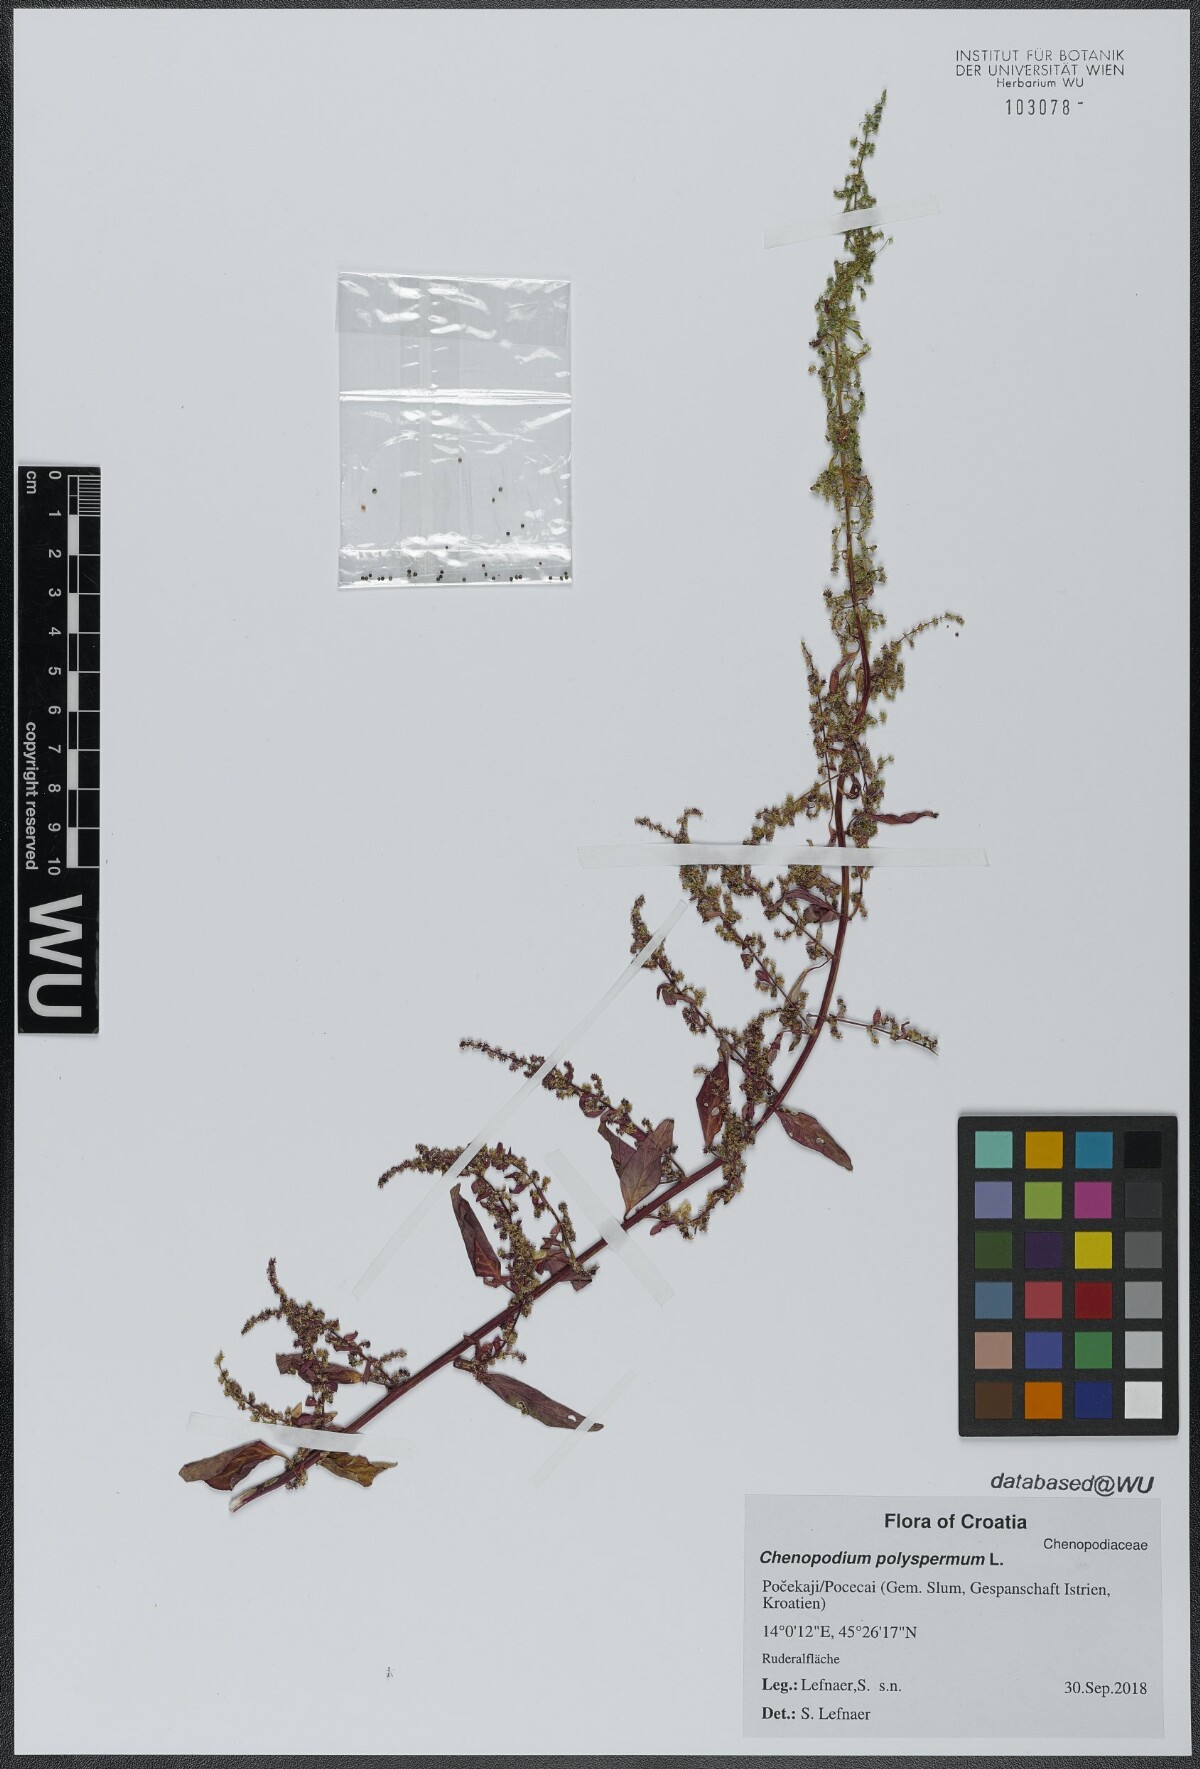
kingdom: Plantae
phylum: Tracheophyta
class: Magnoliopsida
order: Caryophyllales
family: Amaranthaceae
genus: Lipandra
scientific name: Lipandra polysperma
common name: Many-seed goosefoot
